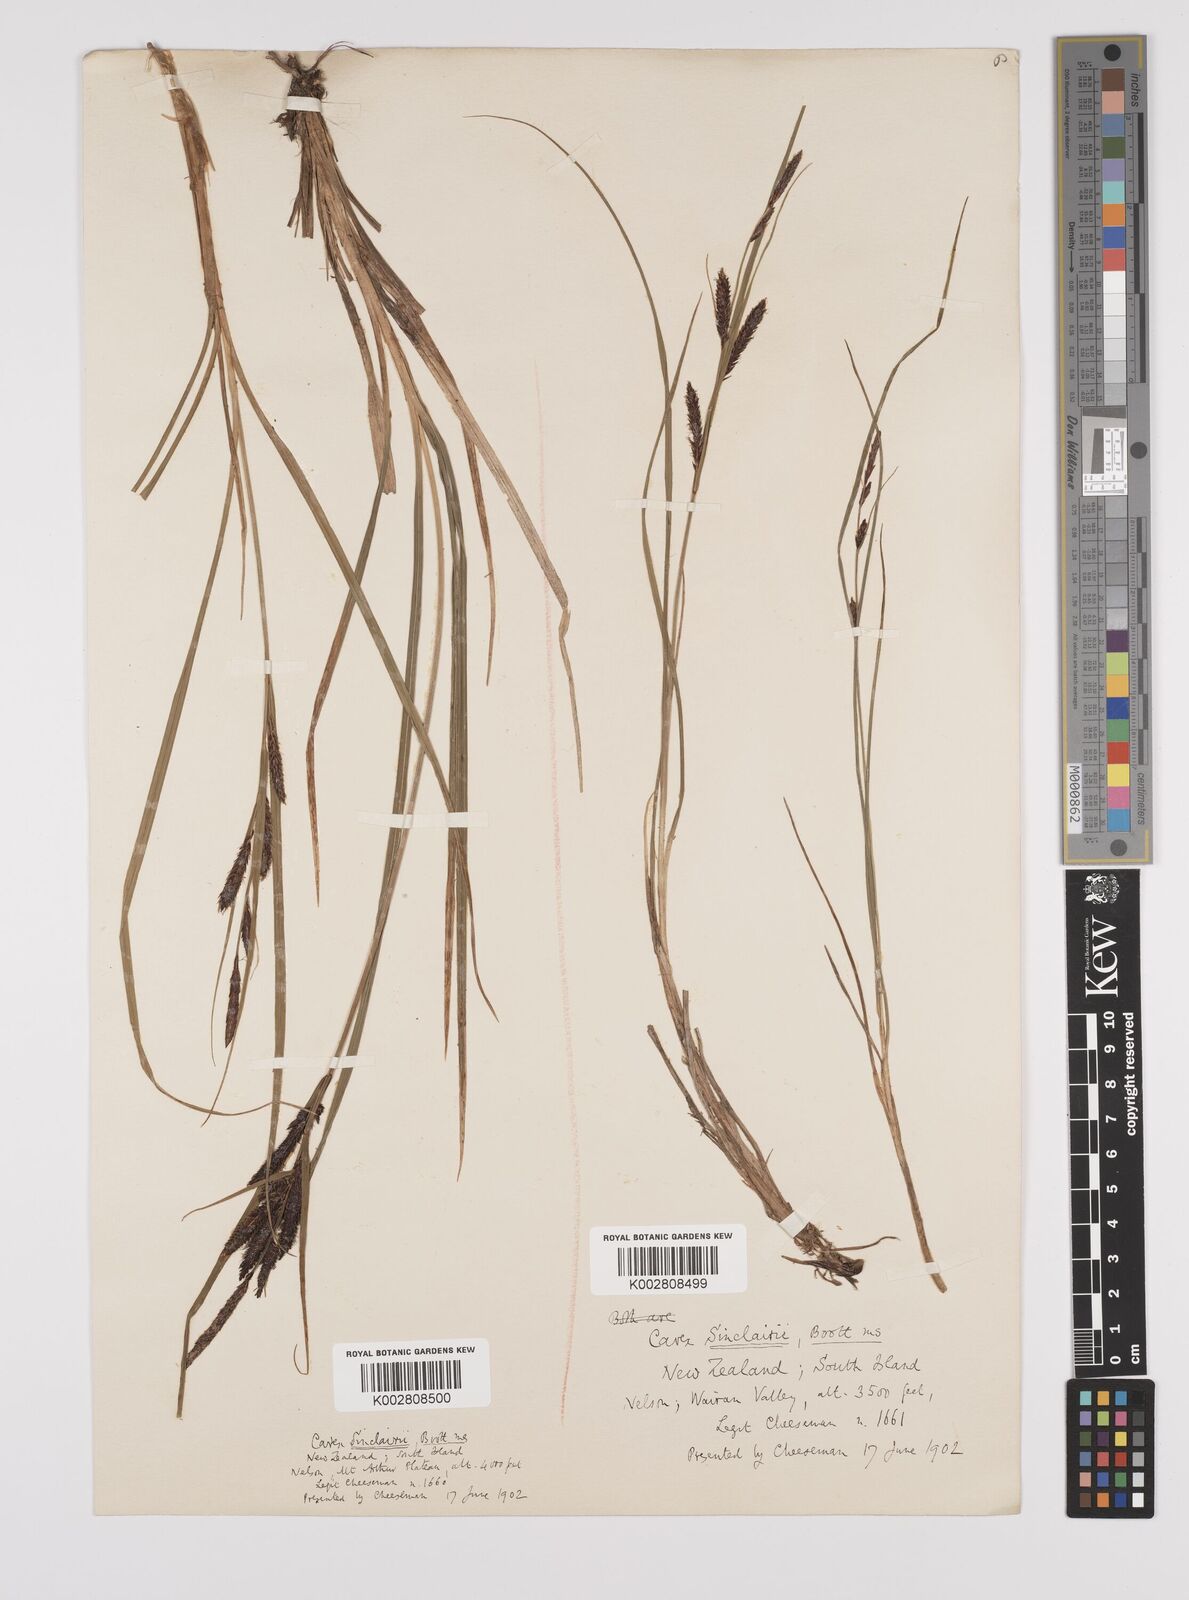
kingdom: Plantae
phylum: Tracheophyta
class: Liliopsida
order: Poales
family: Cyperaceae
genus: Carex
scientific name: Carex sinclairii
